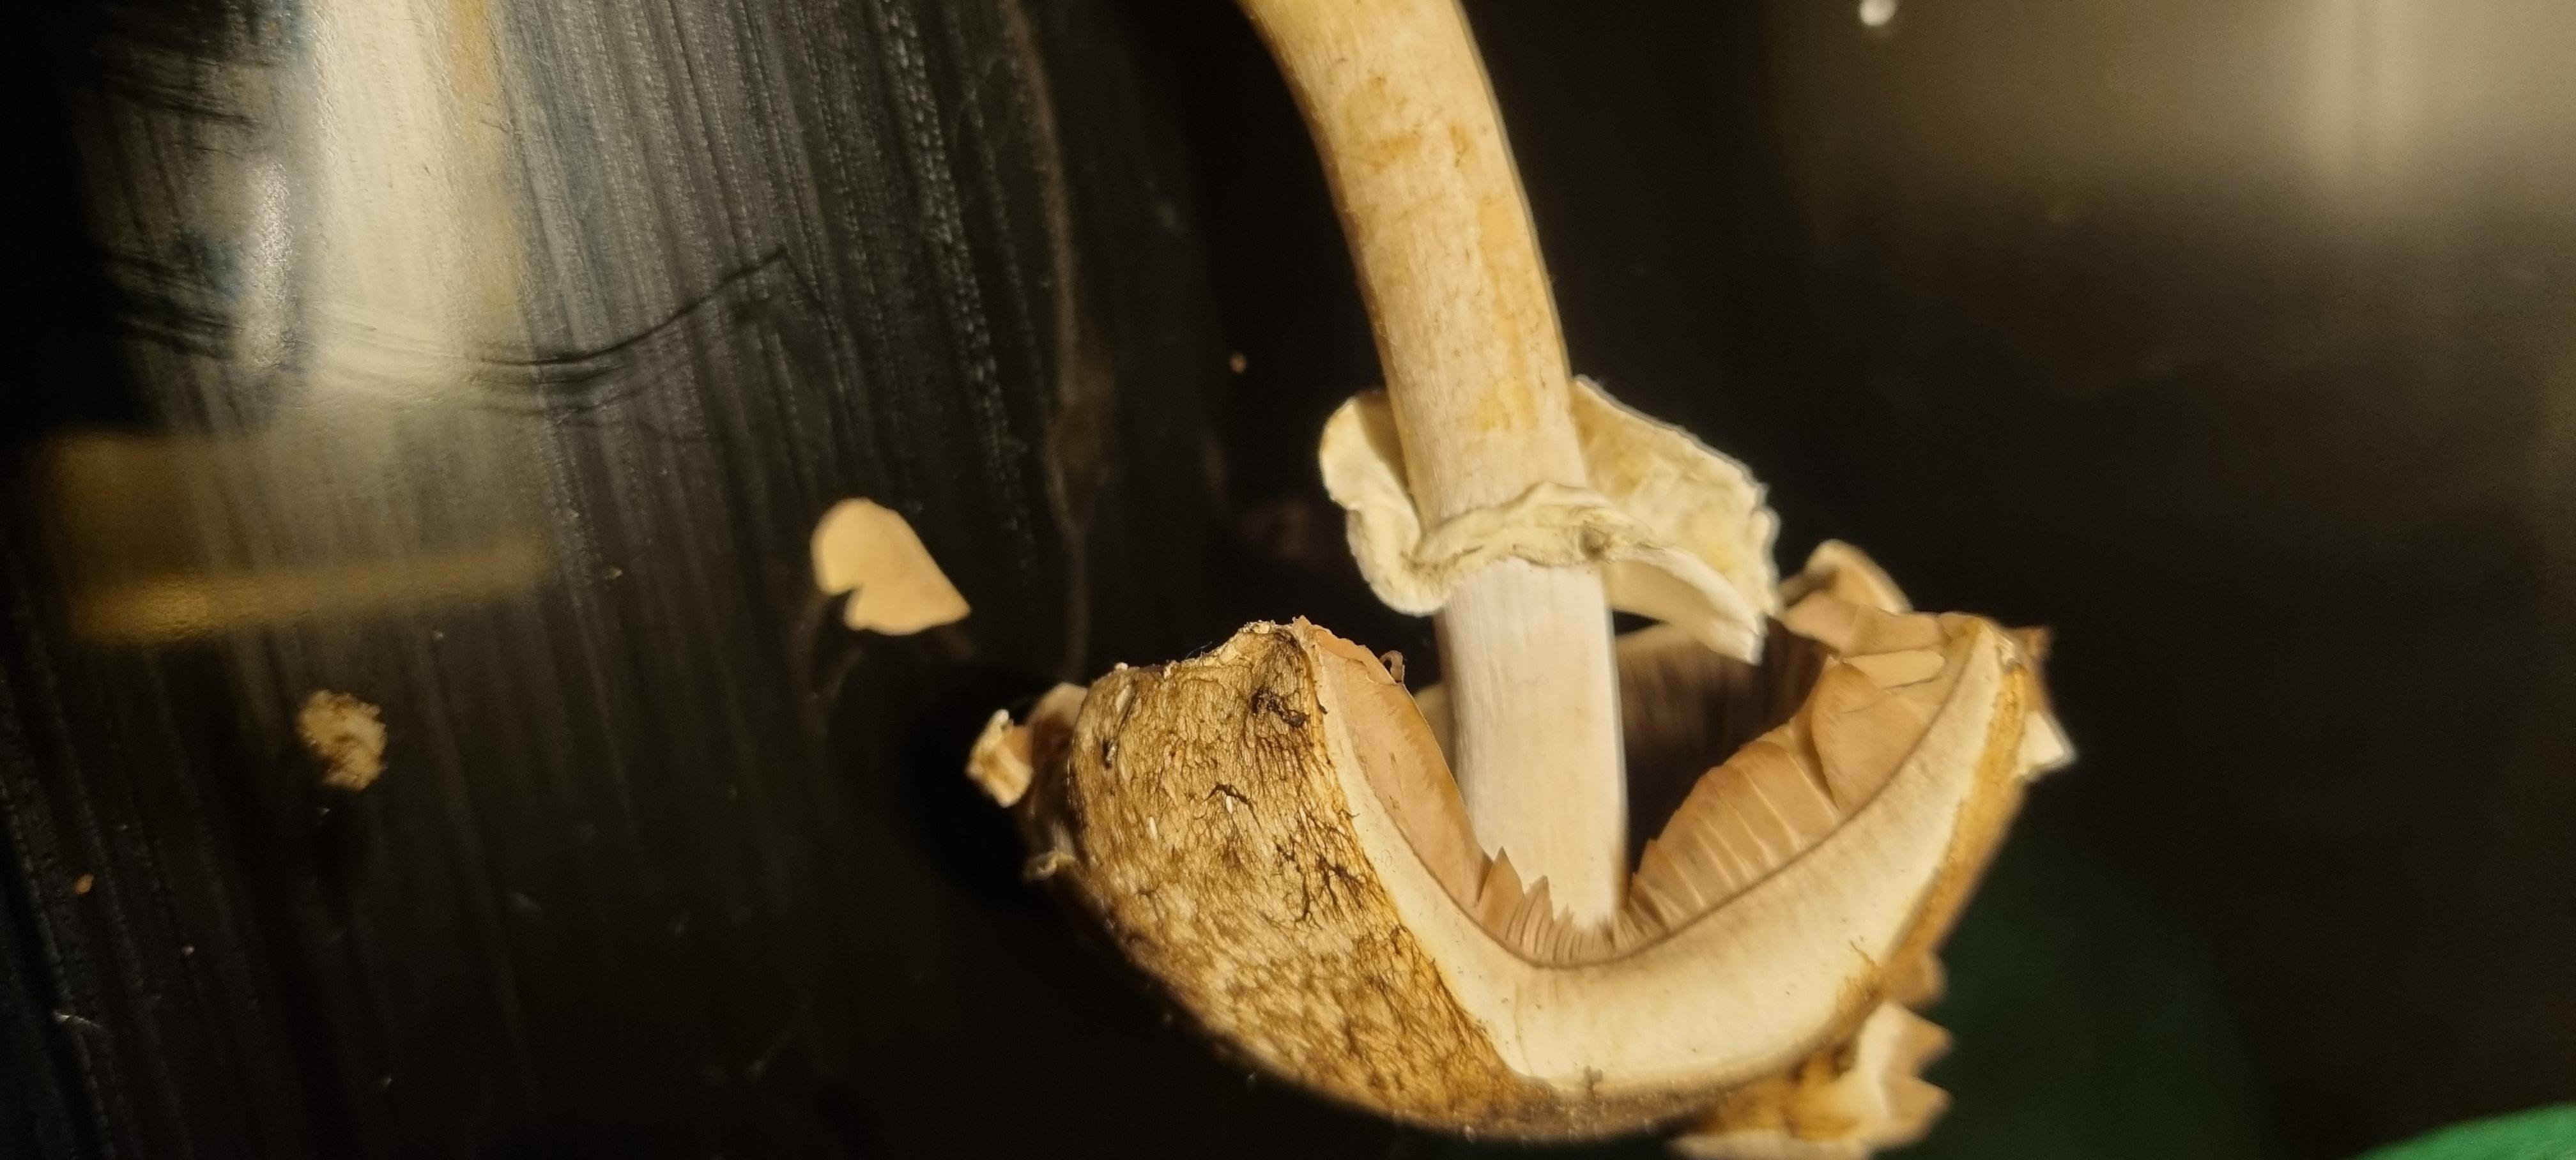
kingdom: Fungi
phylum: Basidiomycota
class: Agaricomycetes
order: Agaricales
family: Agaricaceae
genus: Agaricus
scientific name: Agaricus
